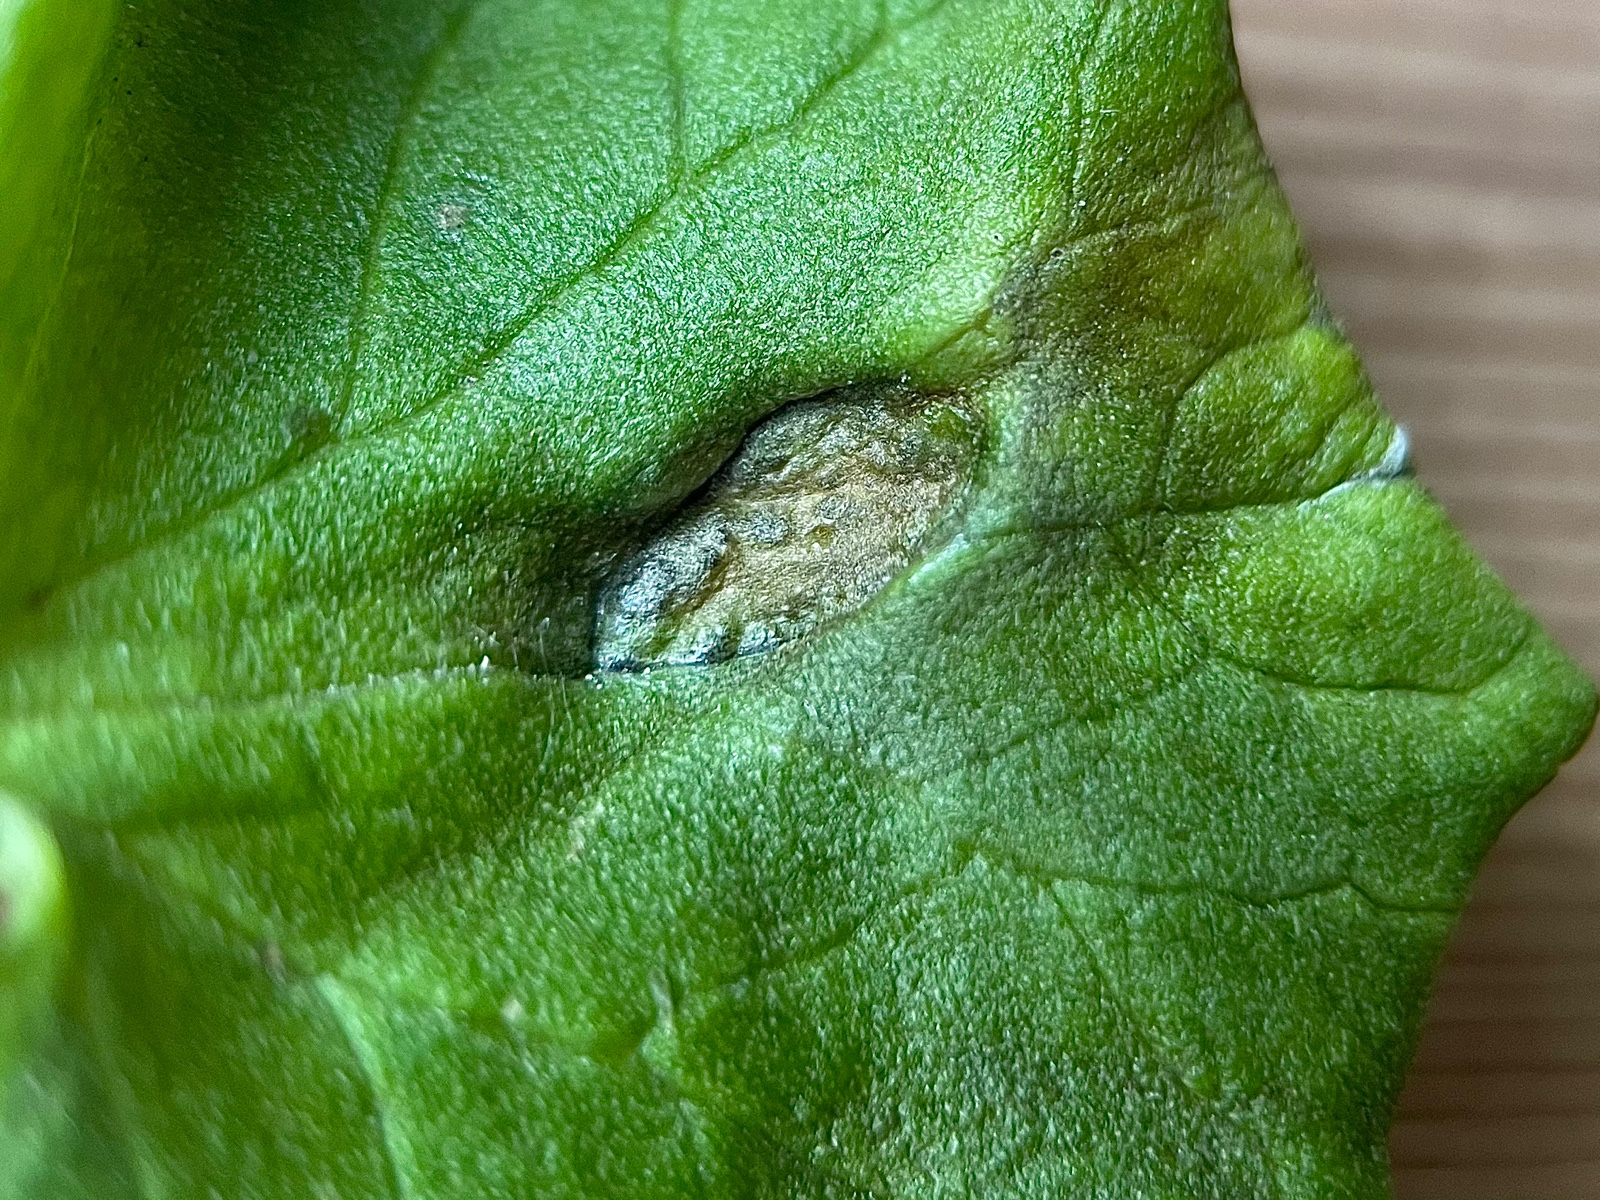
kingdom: Fungi
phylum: Basidiomycota
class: Ustilaginomycetes
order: Urocystidales
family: Urocystidaceae
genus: Urocystis
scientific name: Urocystis ficariae
